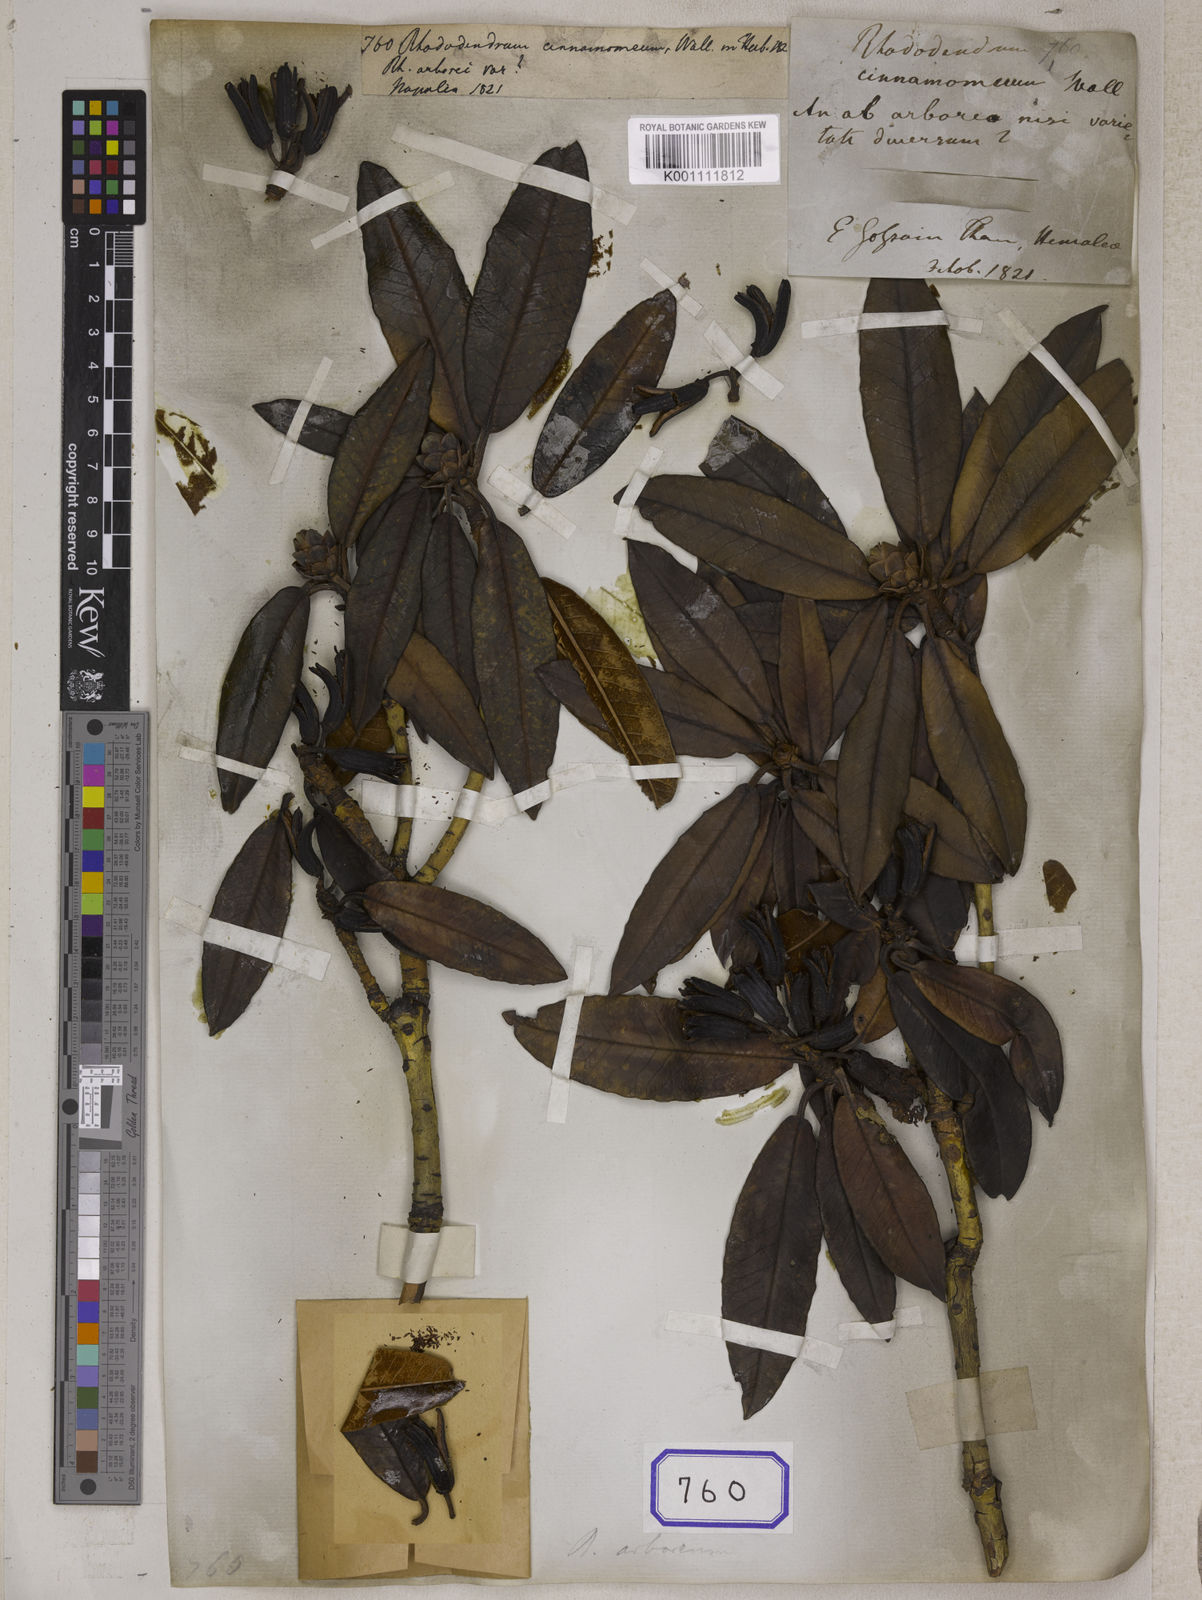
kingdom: Plantae
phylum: Tracheophyta
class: Magnoliopsida
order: Ericales
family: Ericaceae
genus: Rhododendron
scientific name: Rhododendron
